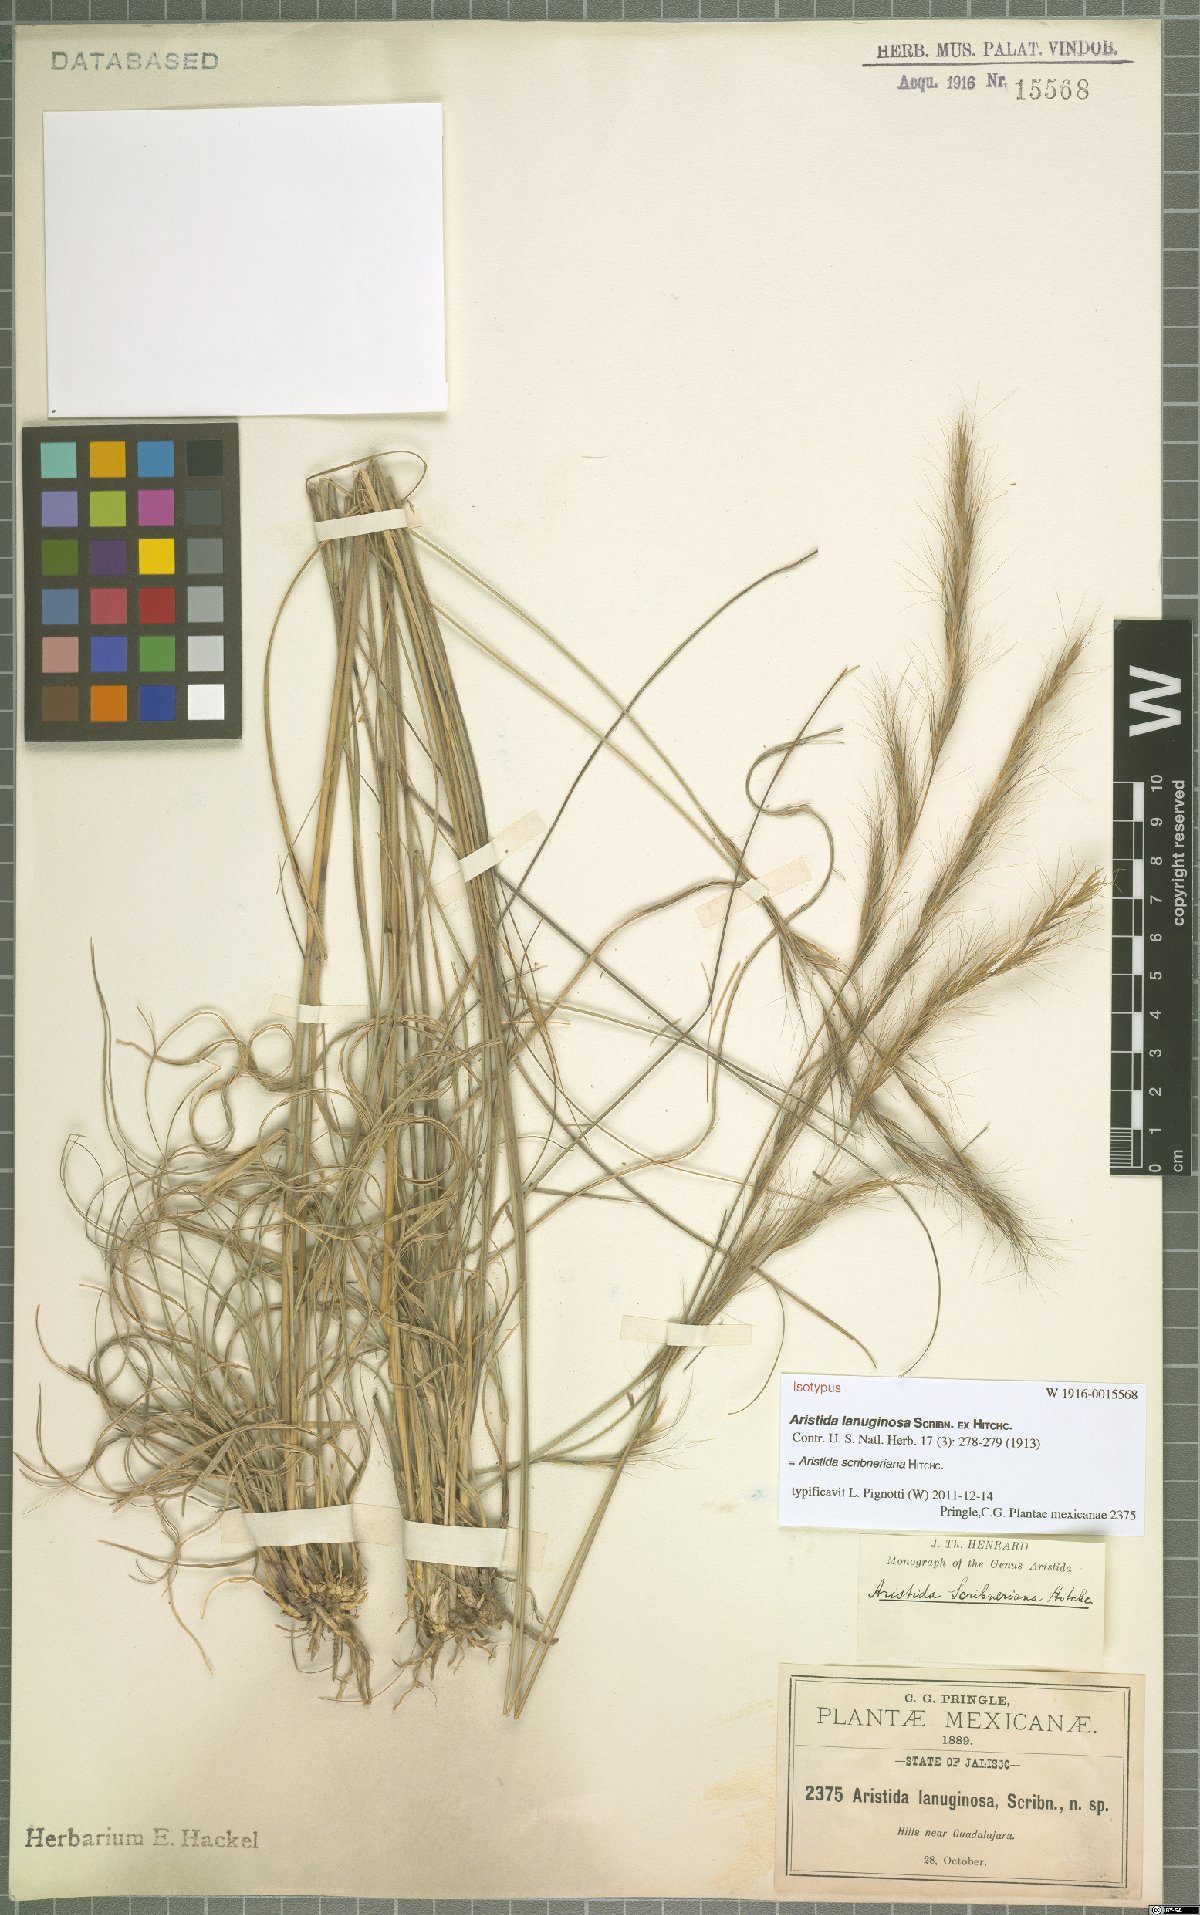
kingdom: Plantae
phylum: Tracheophyta
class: Liliopsida
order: Poales
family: Poaceae
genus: Aristida
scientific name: Aristida scribneriana
